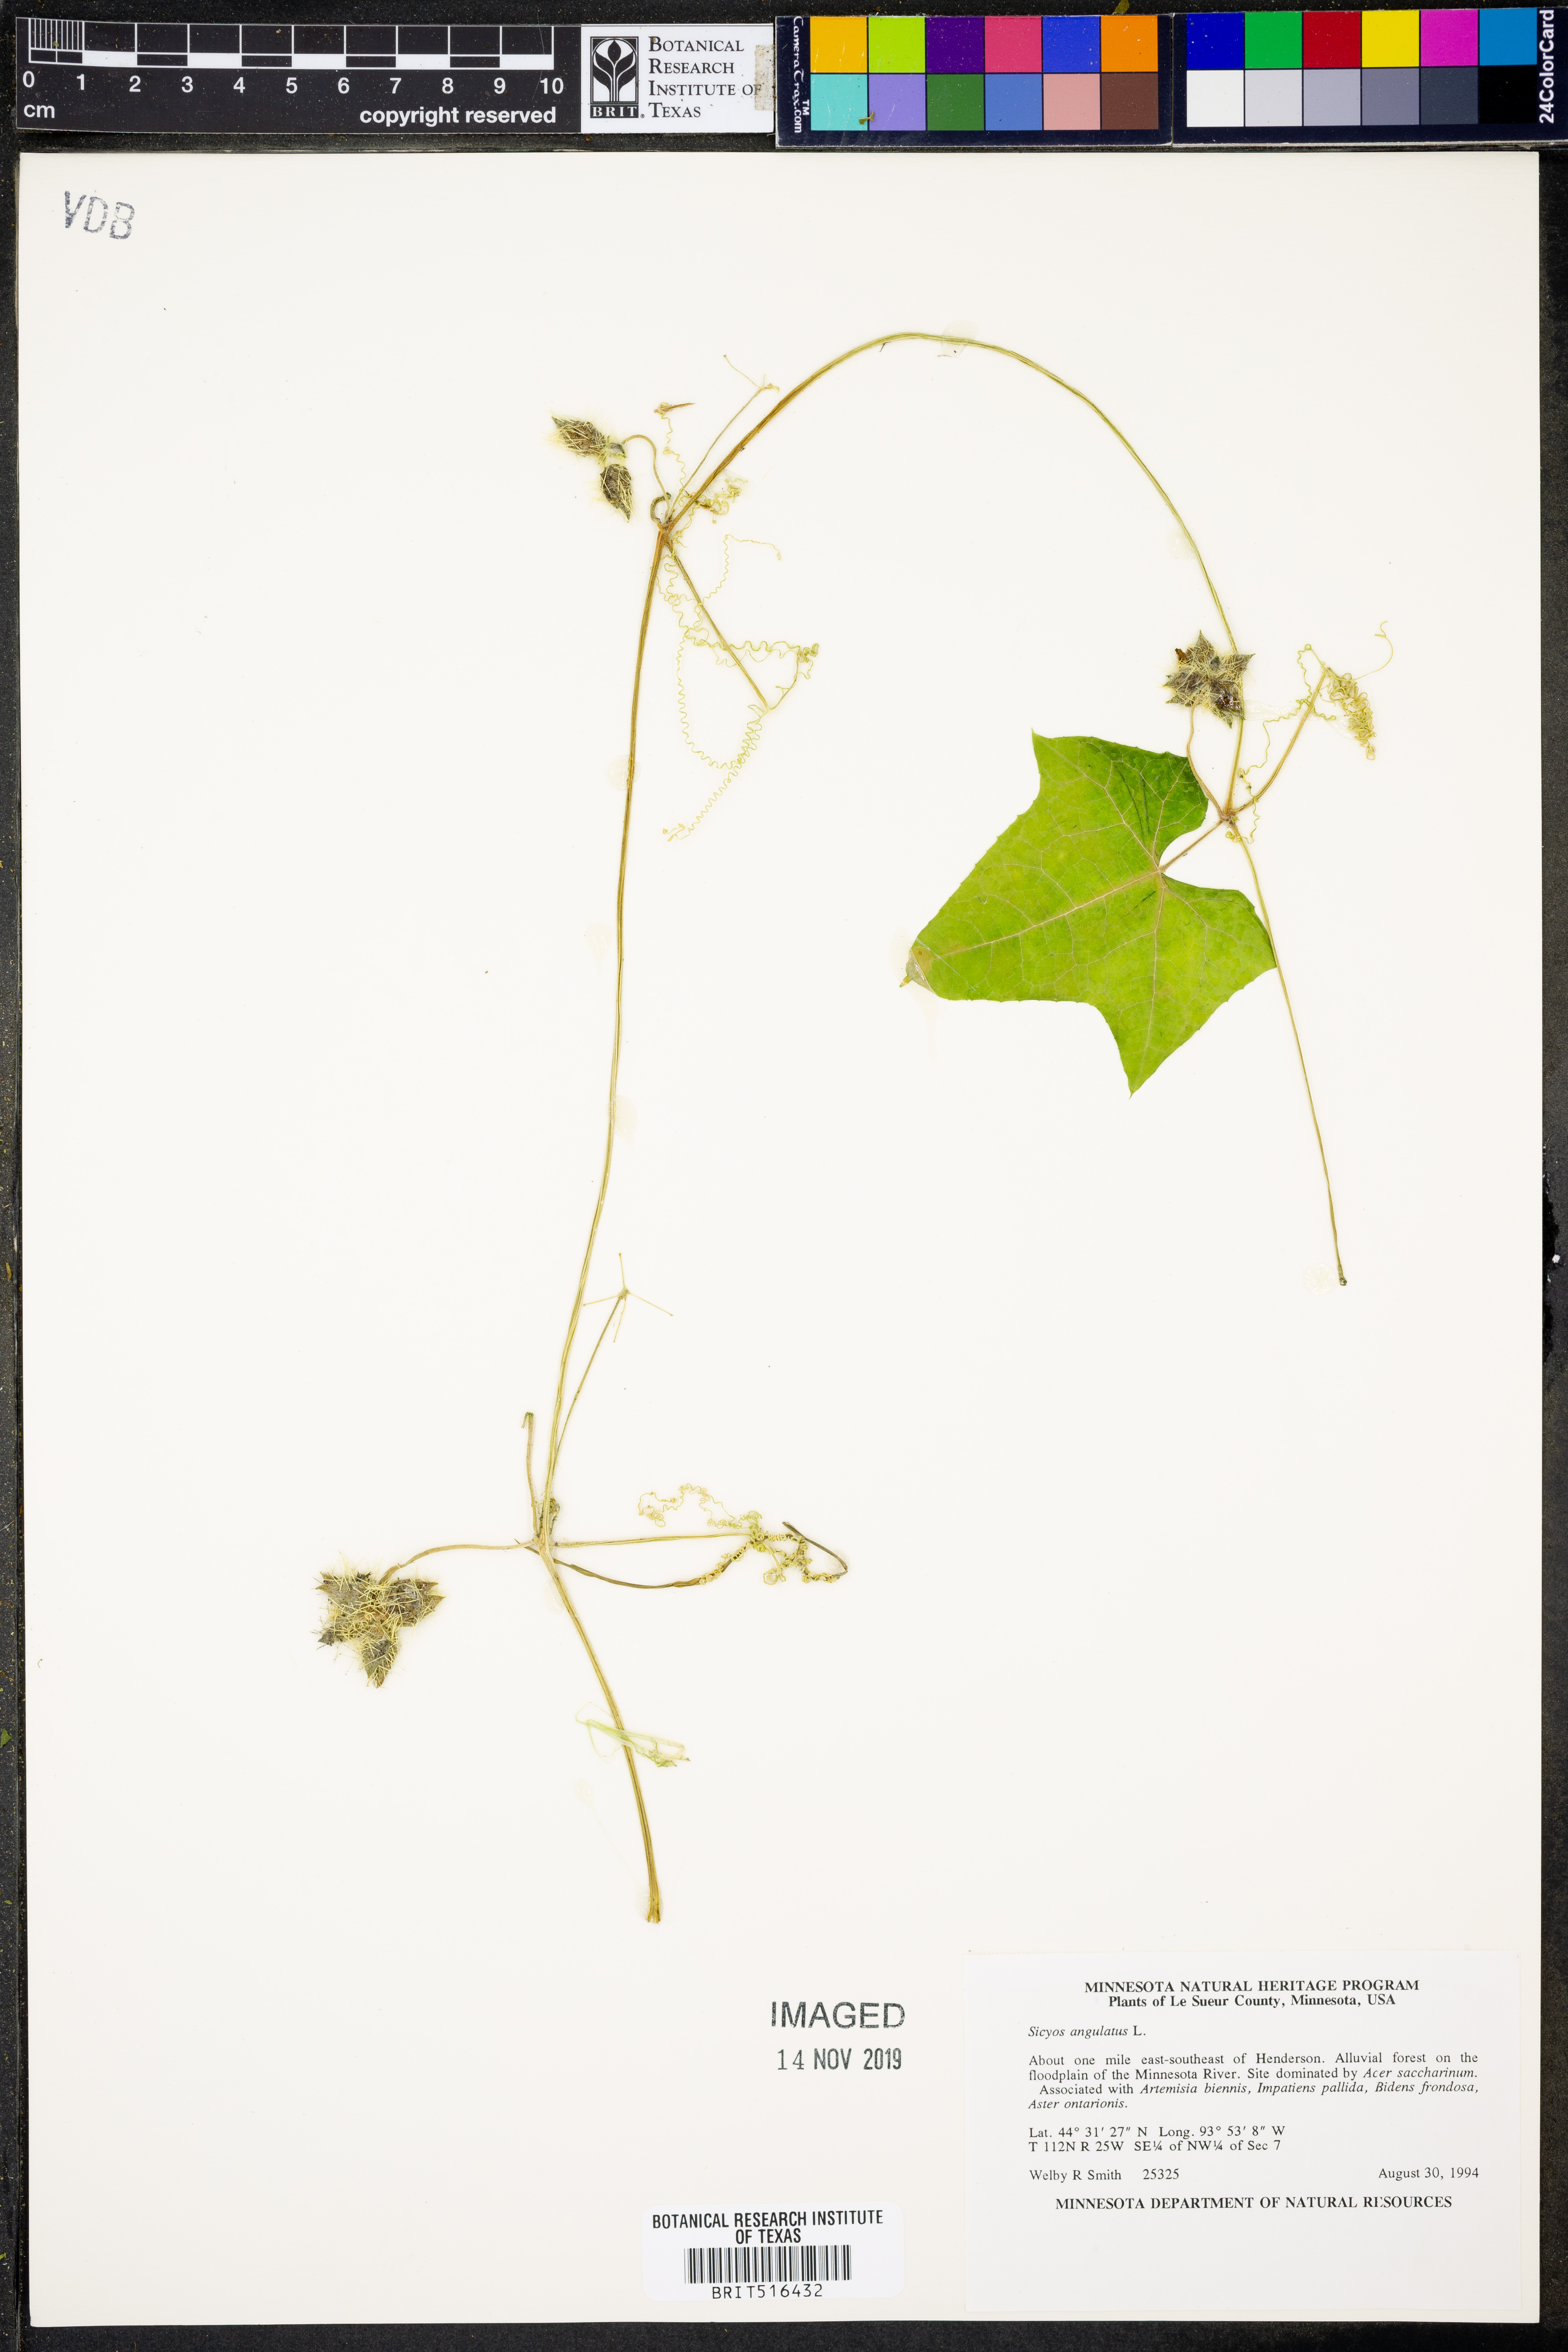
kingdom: Plantae
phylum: Tracheophyta
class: Magnoliopsida
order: Cucurbitales
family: Cucurbitaceae
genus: Sicyos
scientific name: Sicyos angulatus
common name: Angled burr cucumber
